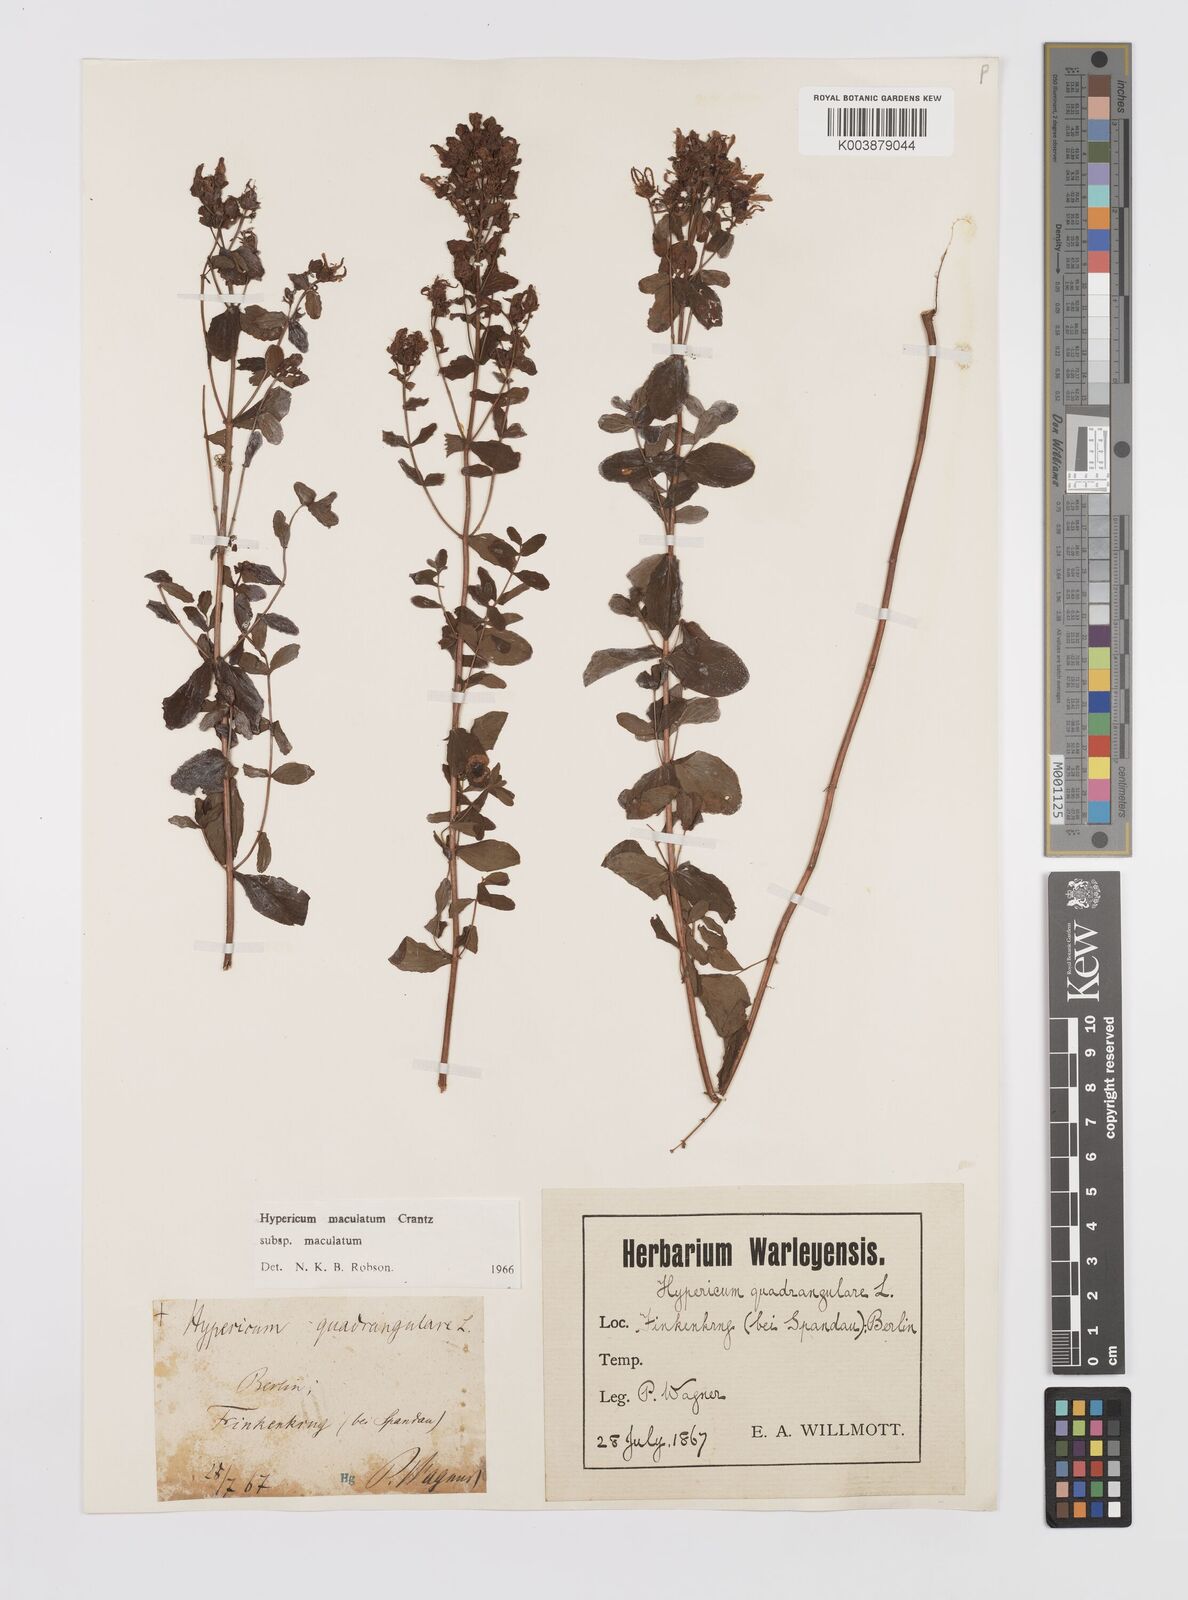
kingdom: Plantae
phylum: Tracheophyta
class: Magnoliopsida
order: Malpighiales
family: Hypericaceae
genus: Hypericum
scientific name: Hypericum maculatum
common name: Imperforate st. john's-wort
